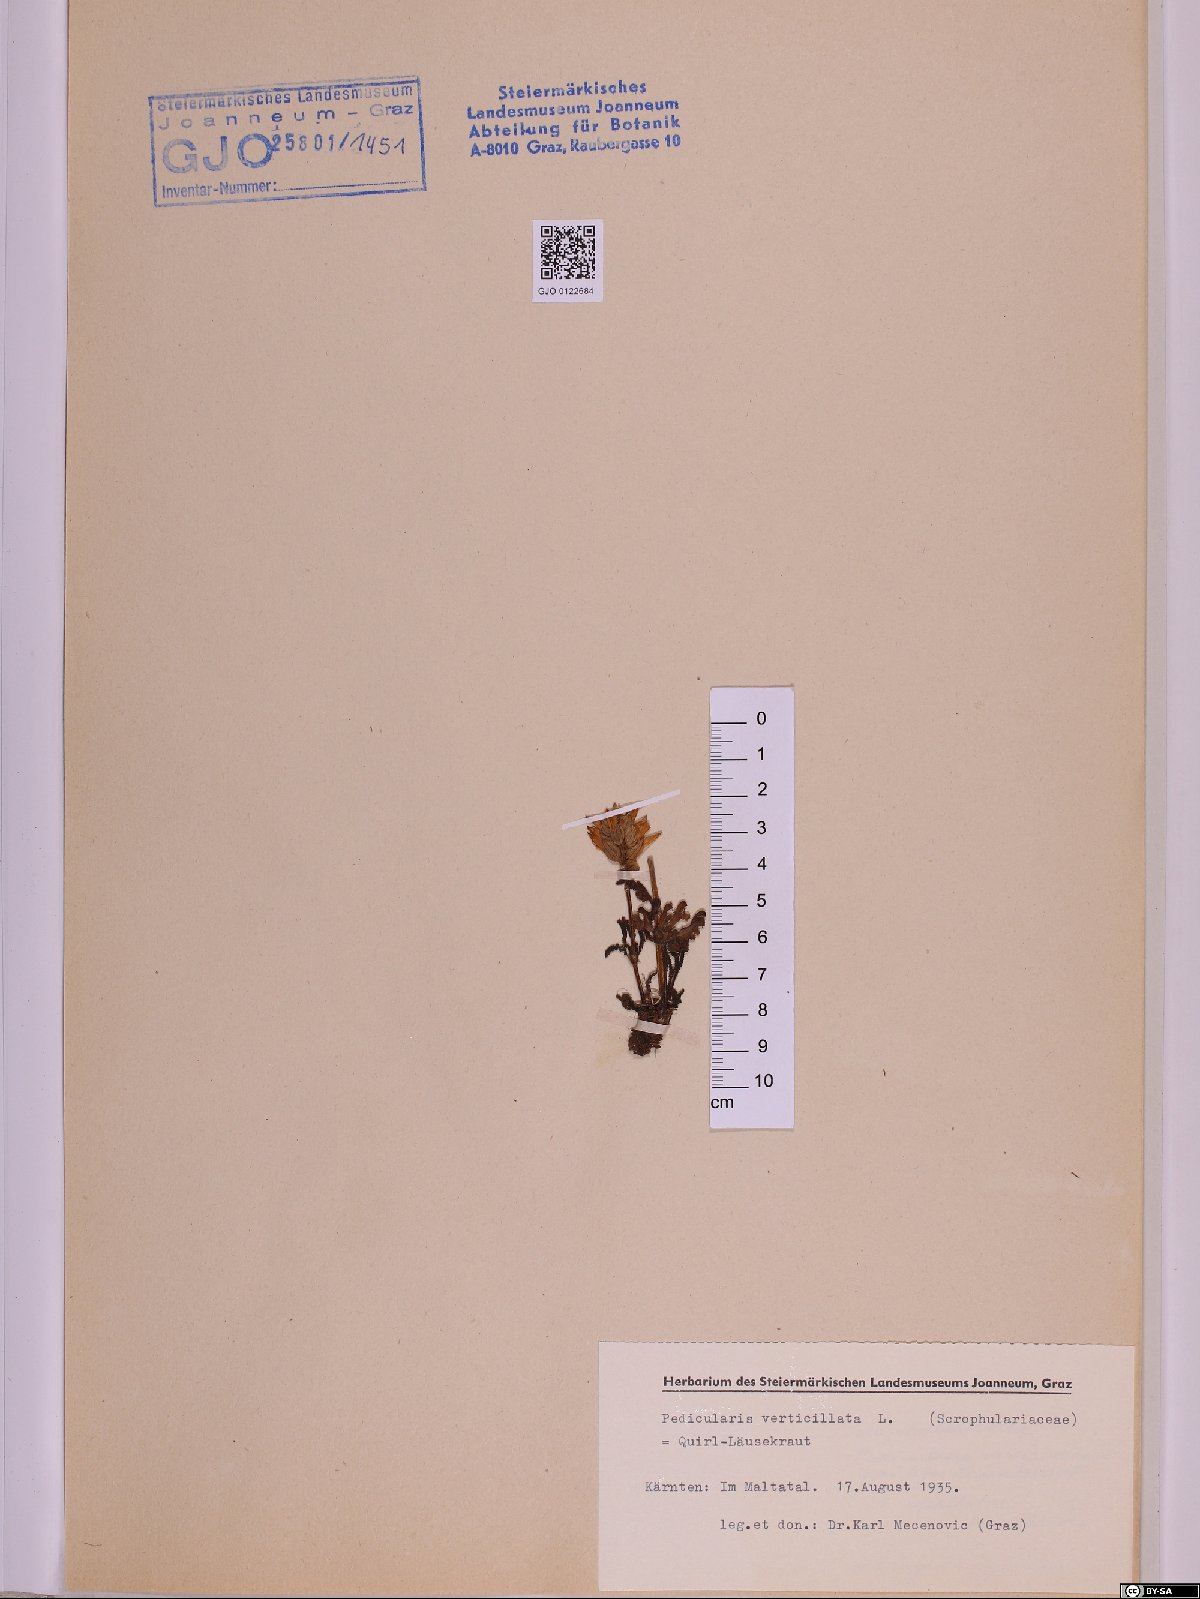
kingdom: Plantae
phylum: Tracheophyta
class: Magnoliopsida
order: Lamiales
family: Orobanchaceae
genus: Pedicularis
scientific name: Pedicularis verticillata
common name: Whorled lousewort
